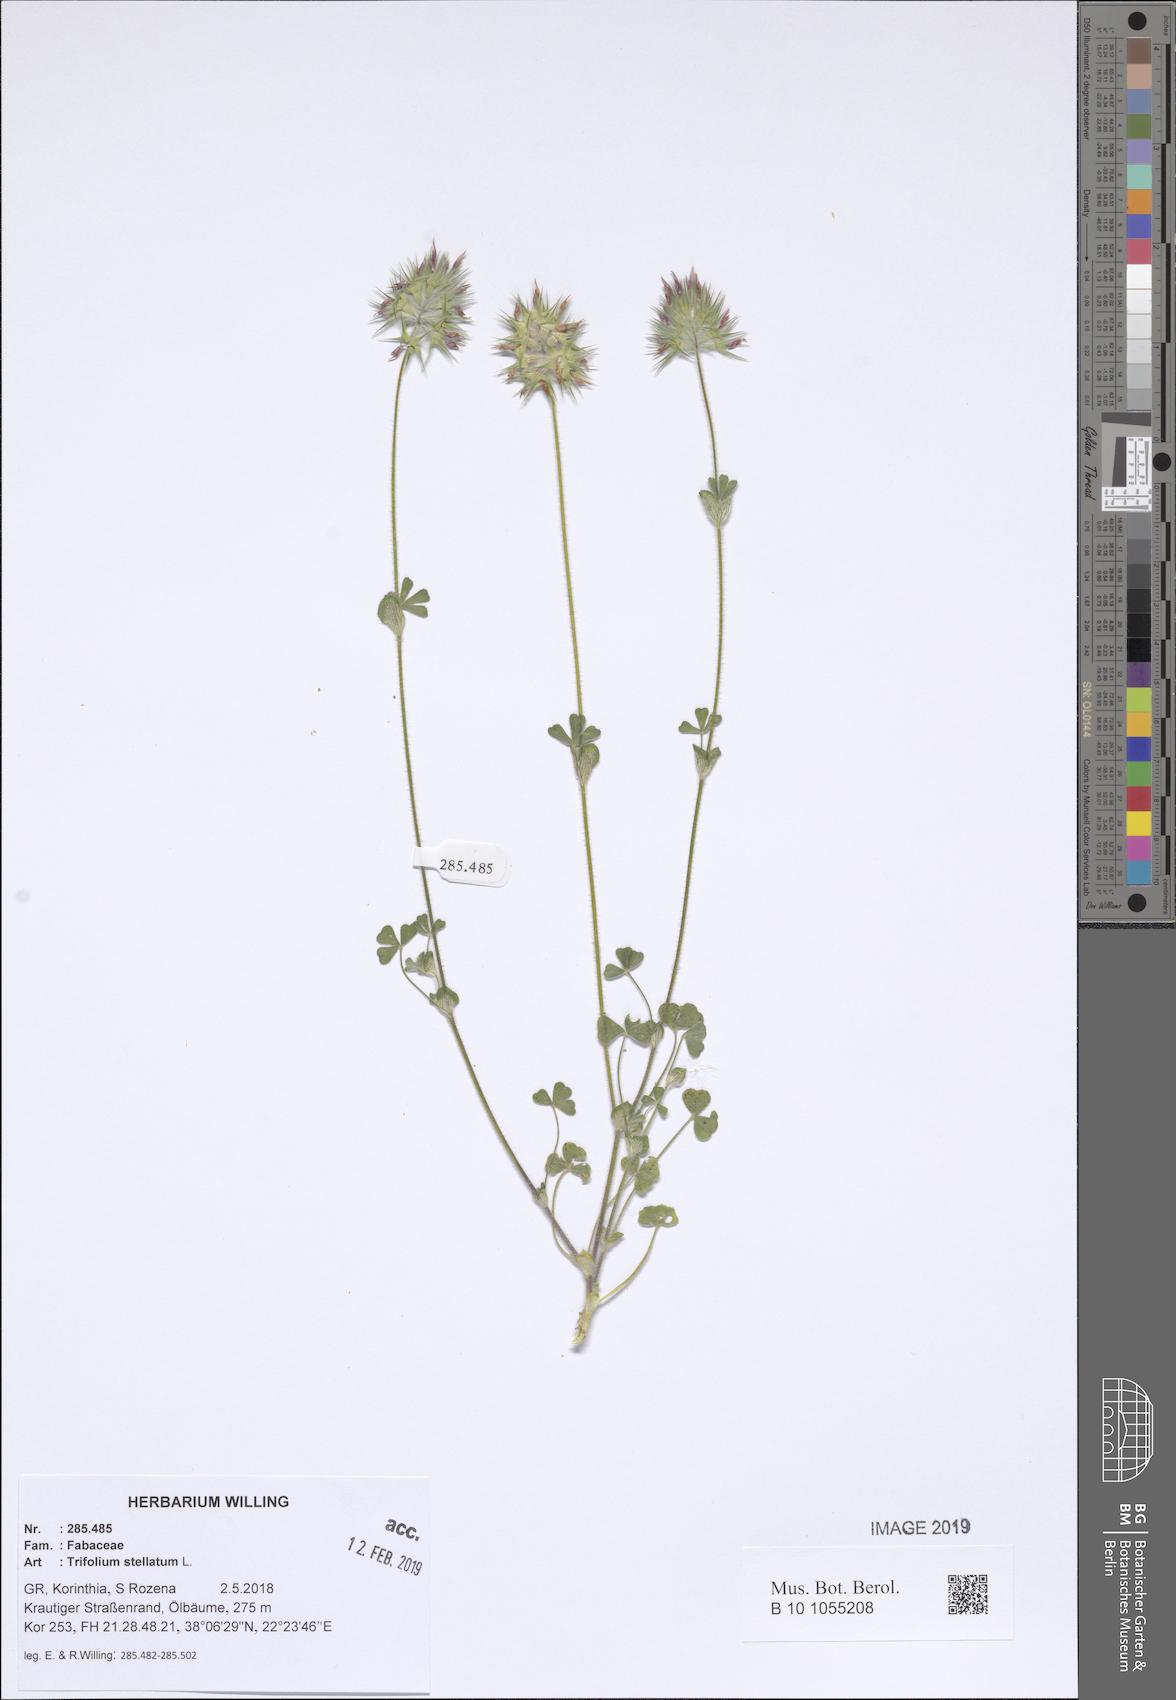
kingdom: Plantae
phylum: Tracheophyta
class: Magnoliopsida
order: Fabales
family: Fabaceae
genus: Trifolium
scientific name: Trifolium stellatum
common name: Starry clover
